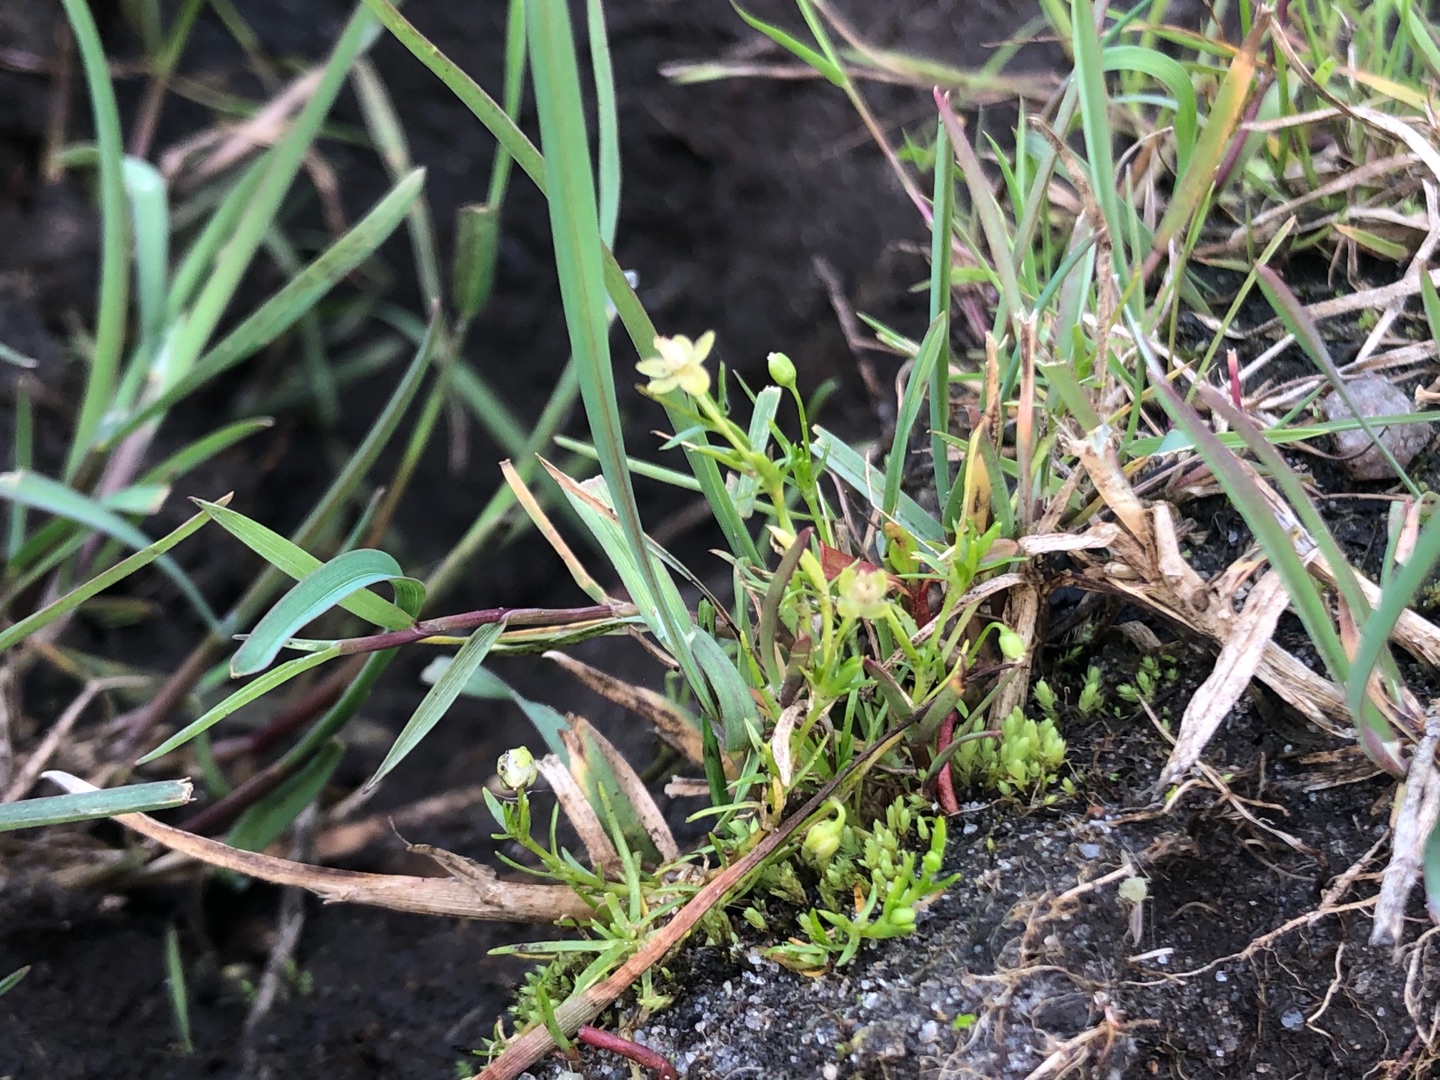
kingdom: Plantae
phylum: Tracheophyta
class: Magnoliopsida
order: Caryophyllales
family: Caryophyllaceae
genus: Sagina
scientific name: Sagina procumbens
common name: Almindelig firling
